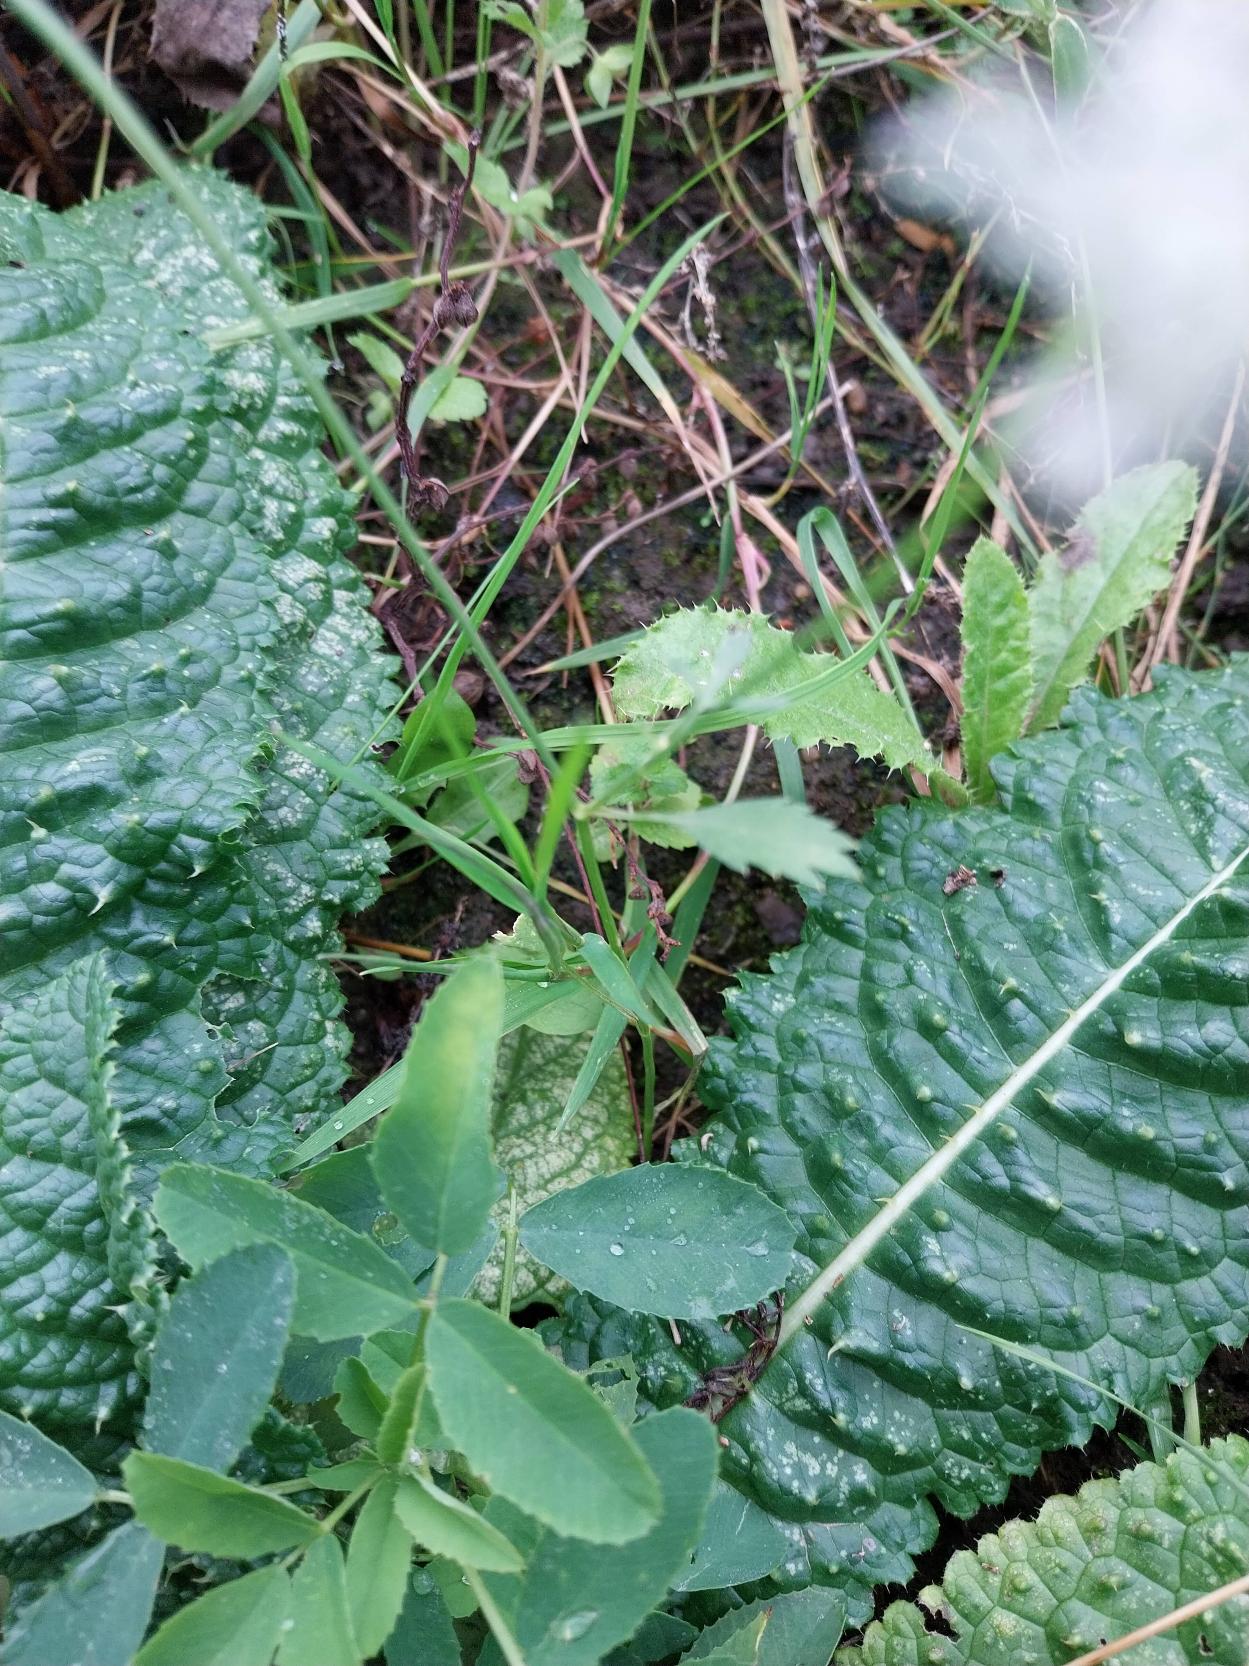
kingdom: Plantae
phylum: Tracheophyta
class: Magnoliopsida
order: Apiales
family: Apiaceae
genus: Ammi
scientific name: Ammi majus
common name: Kongekommen
